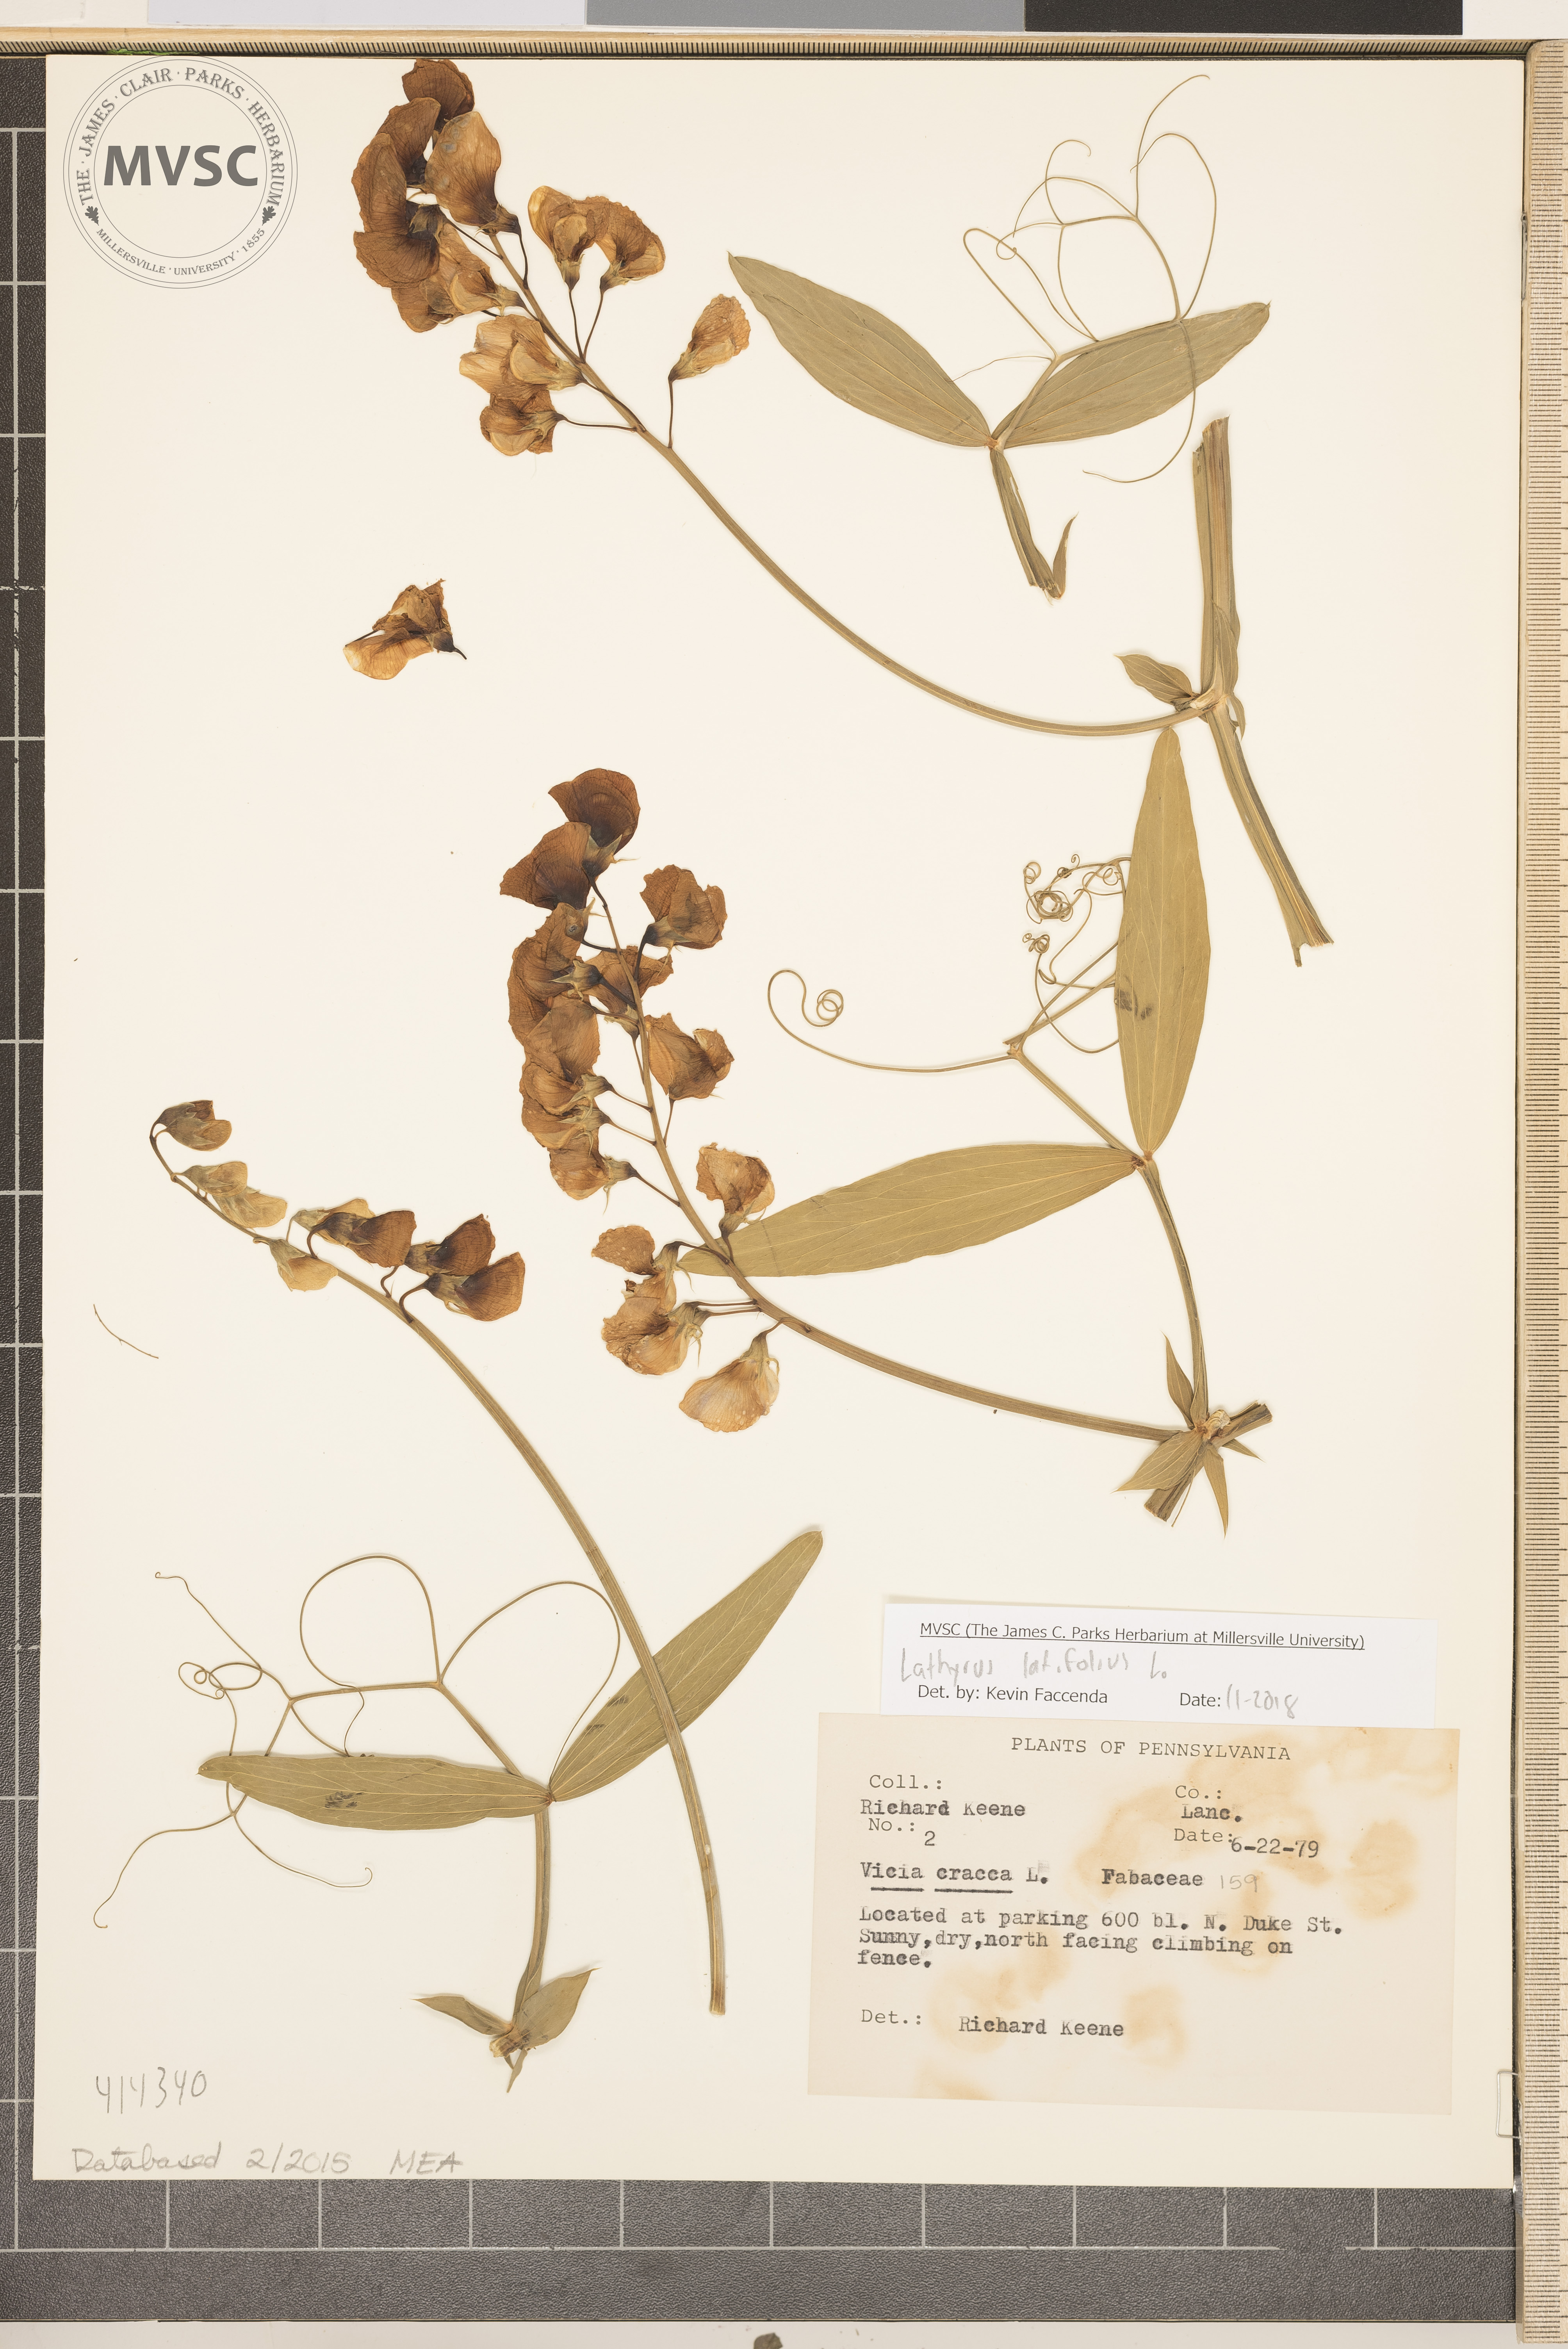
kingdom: Plantae
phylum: Tracheophyta
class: Magnoliopsida
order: Fabales
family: Fabaceae
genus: Lathyrus
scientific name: Lathyrus latifolius
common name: Perennial pea
